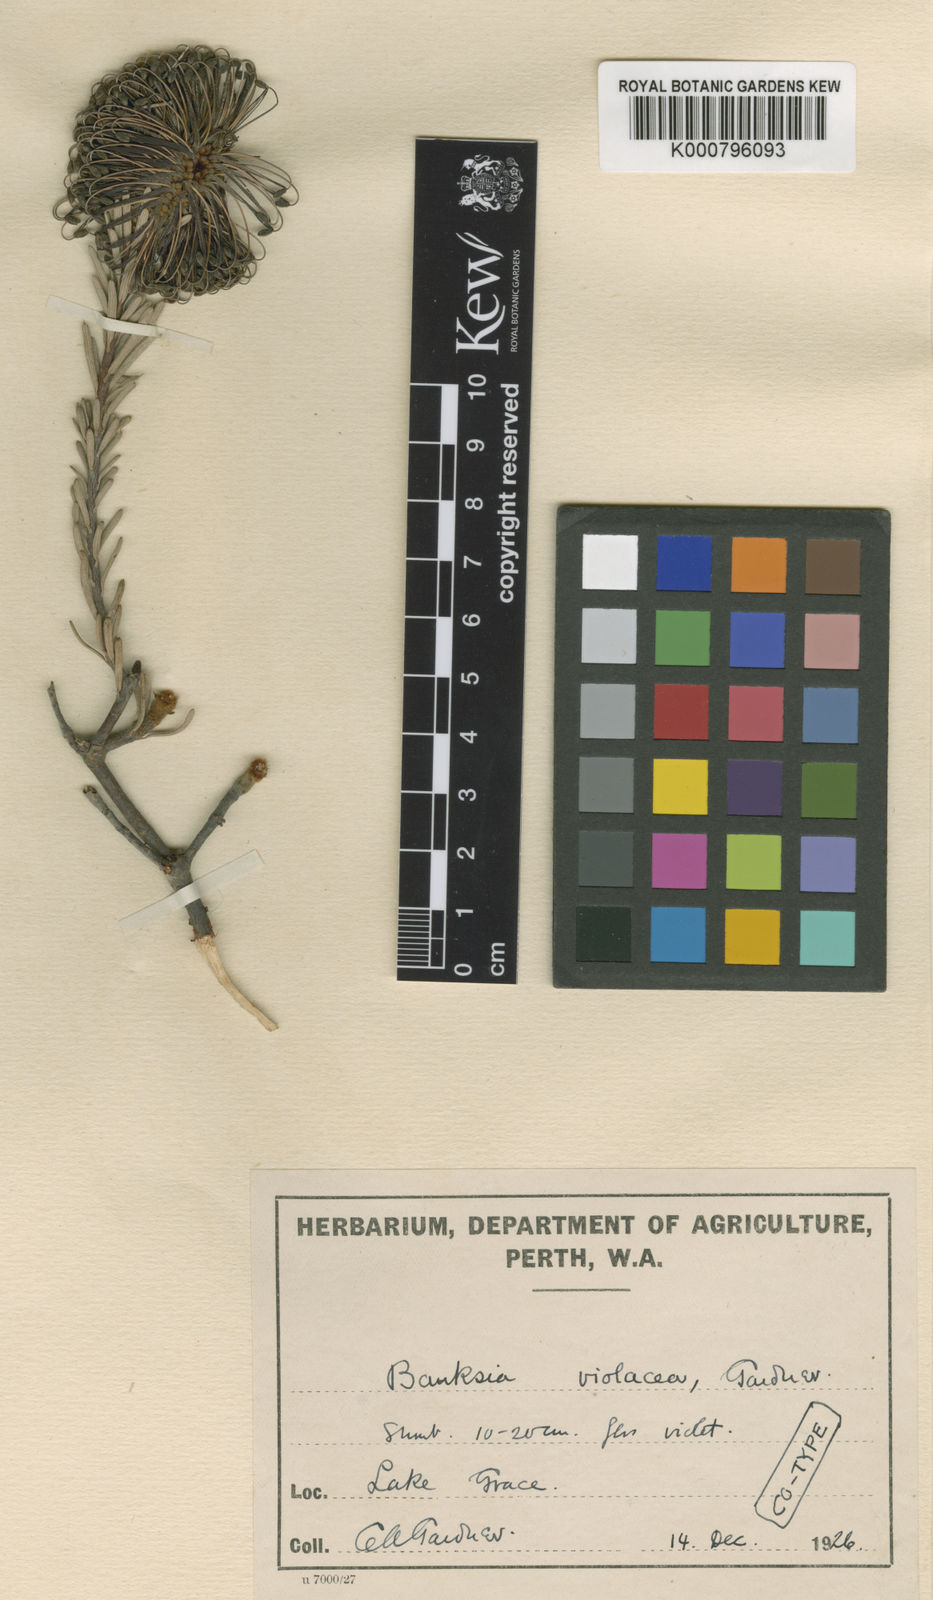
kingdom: Plantae
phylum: Tracheophyta
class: Magnoliopsida
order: Proteales
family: Proteaceae
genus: Banksia
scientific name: Banksia violacea
